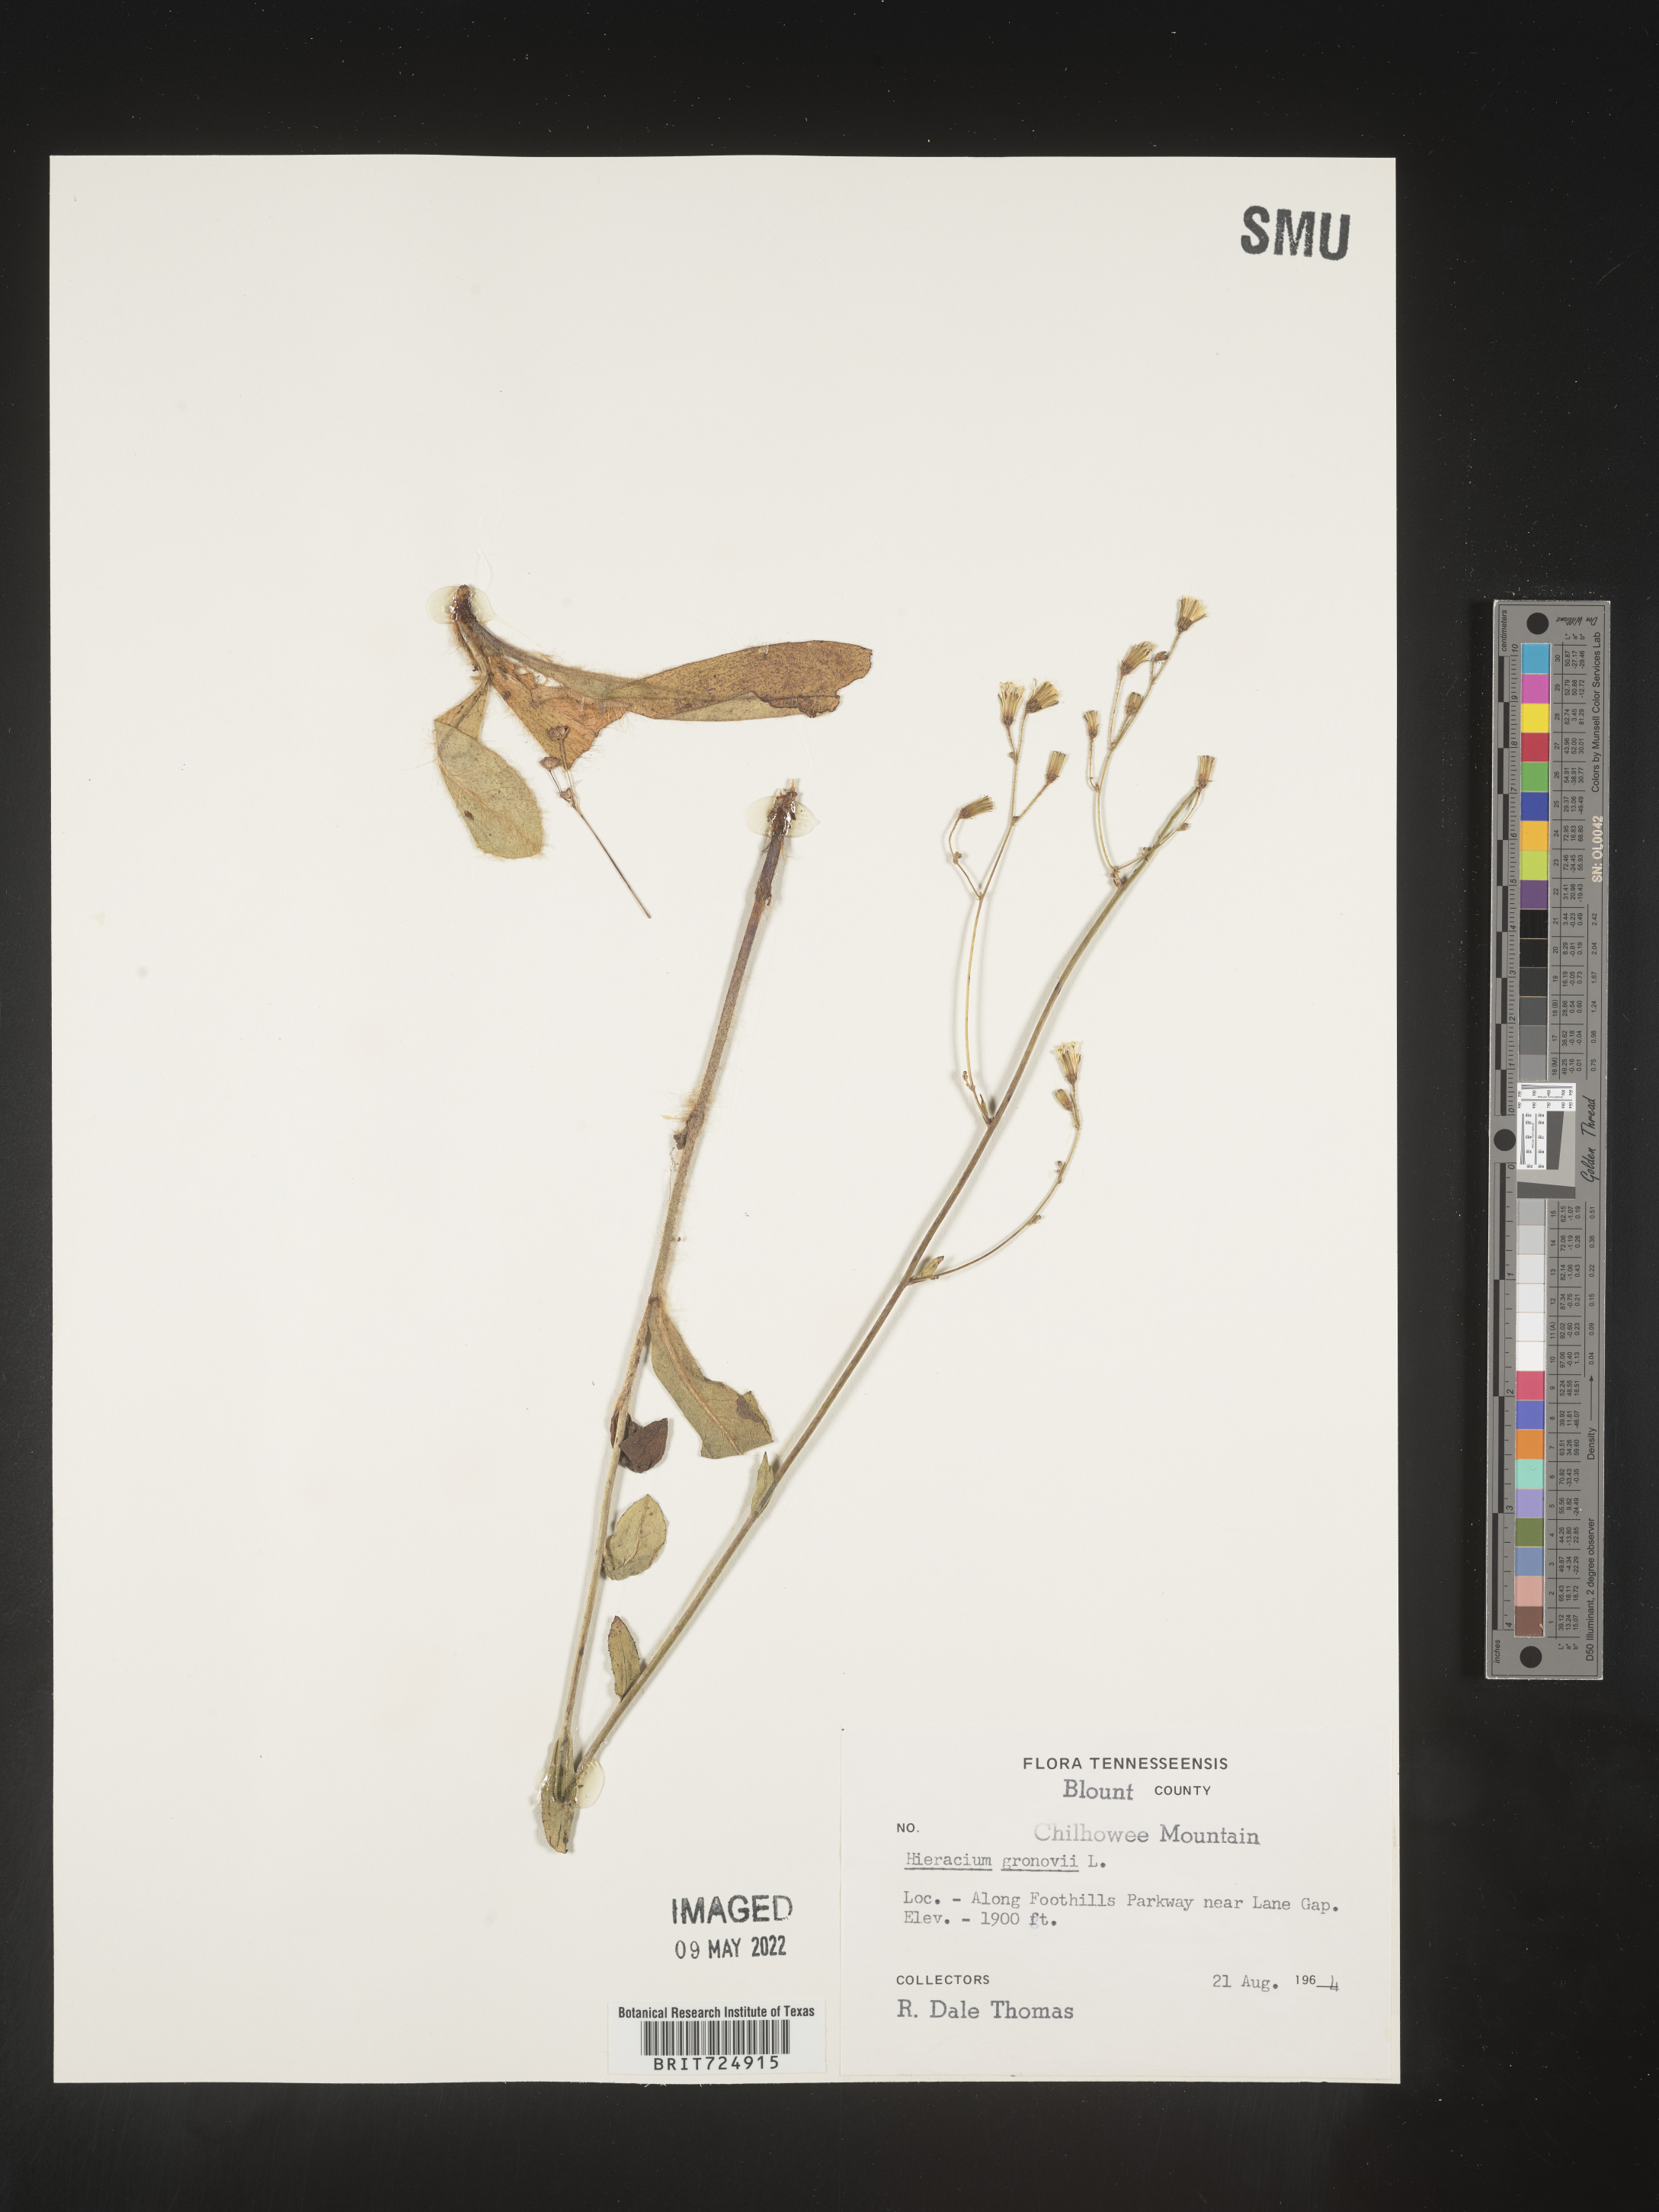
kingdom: Plantae
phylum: Tracheophyta
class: Magnoliopsida
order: Asterales
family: Asteraceae
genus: Hieracium
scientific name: Hieracium gronovii
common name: Beaked hawkweed
